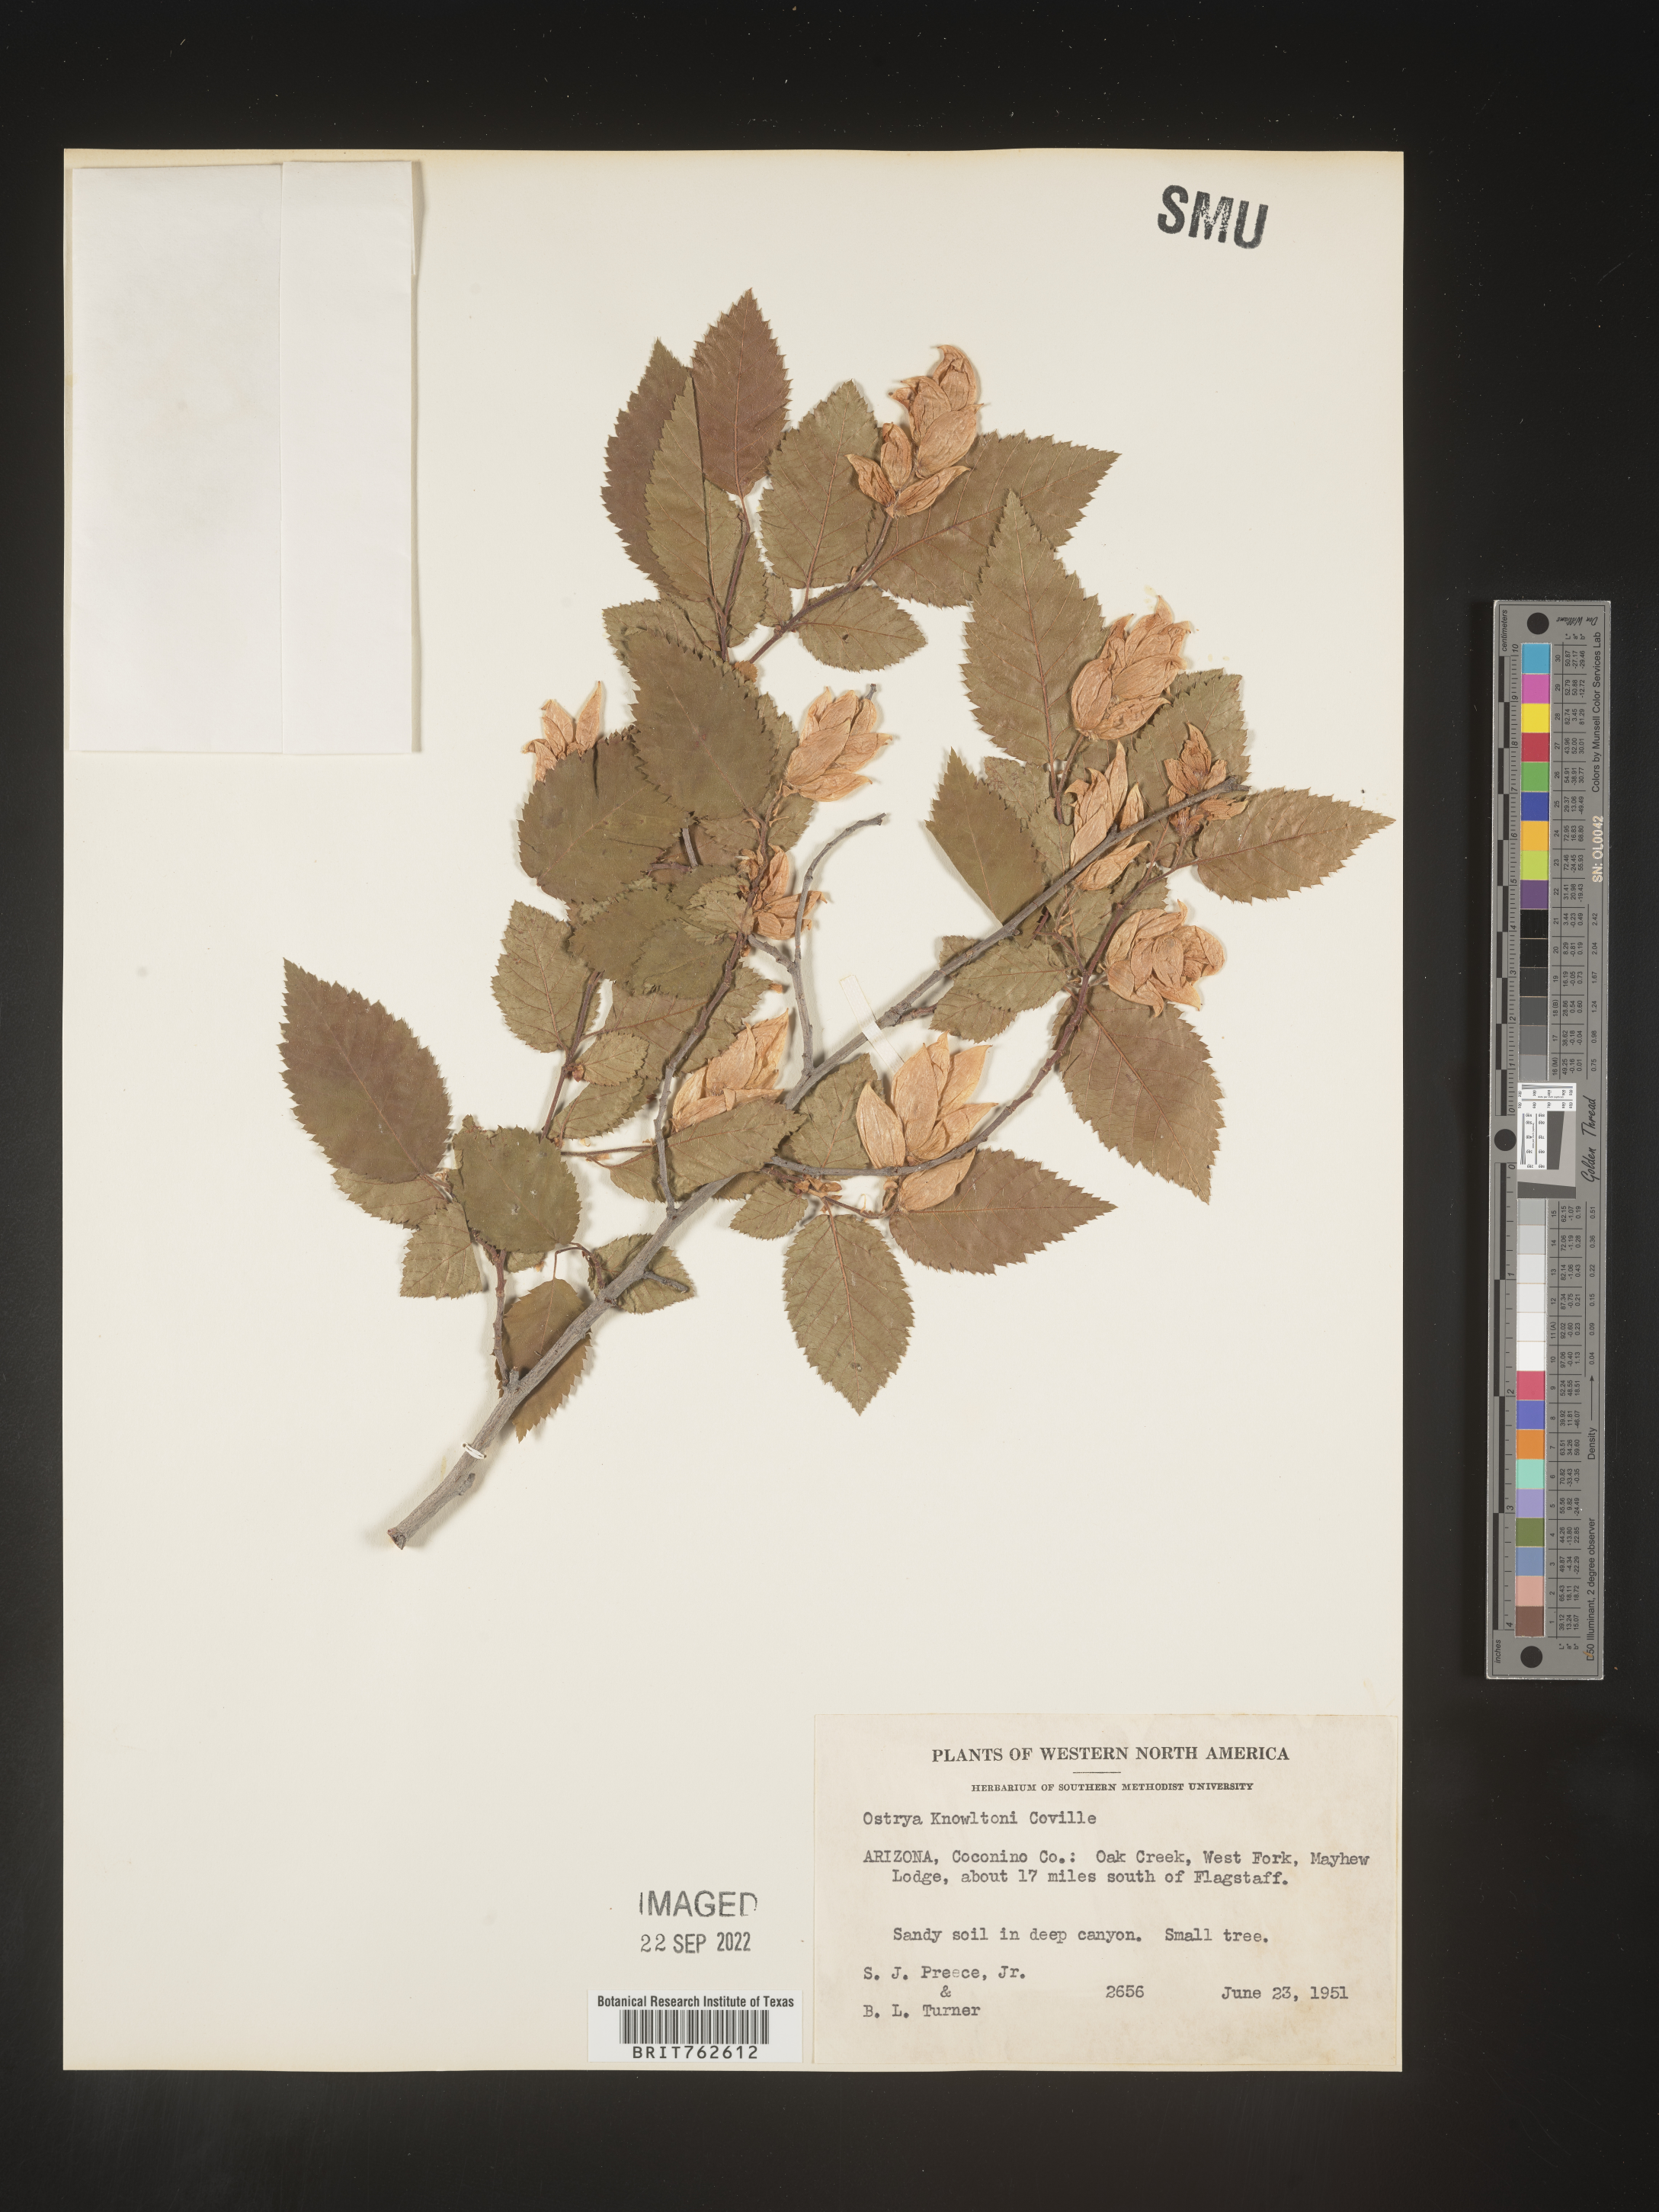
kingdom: Plantae
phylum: Tracheophyta
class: Magnoliopsida
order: Fagales
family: Betulaceae
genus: Ostrya
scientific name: Ostrya
